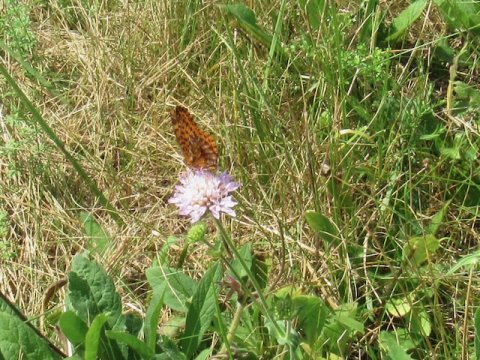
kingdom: Animalia
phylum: Arthropoda
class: Insecta
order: Lepidoptera
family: Nymphalidae
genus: Clossiana
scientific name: Clossiana toddi
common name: Meadow Fritillary
